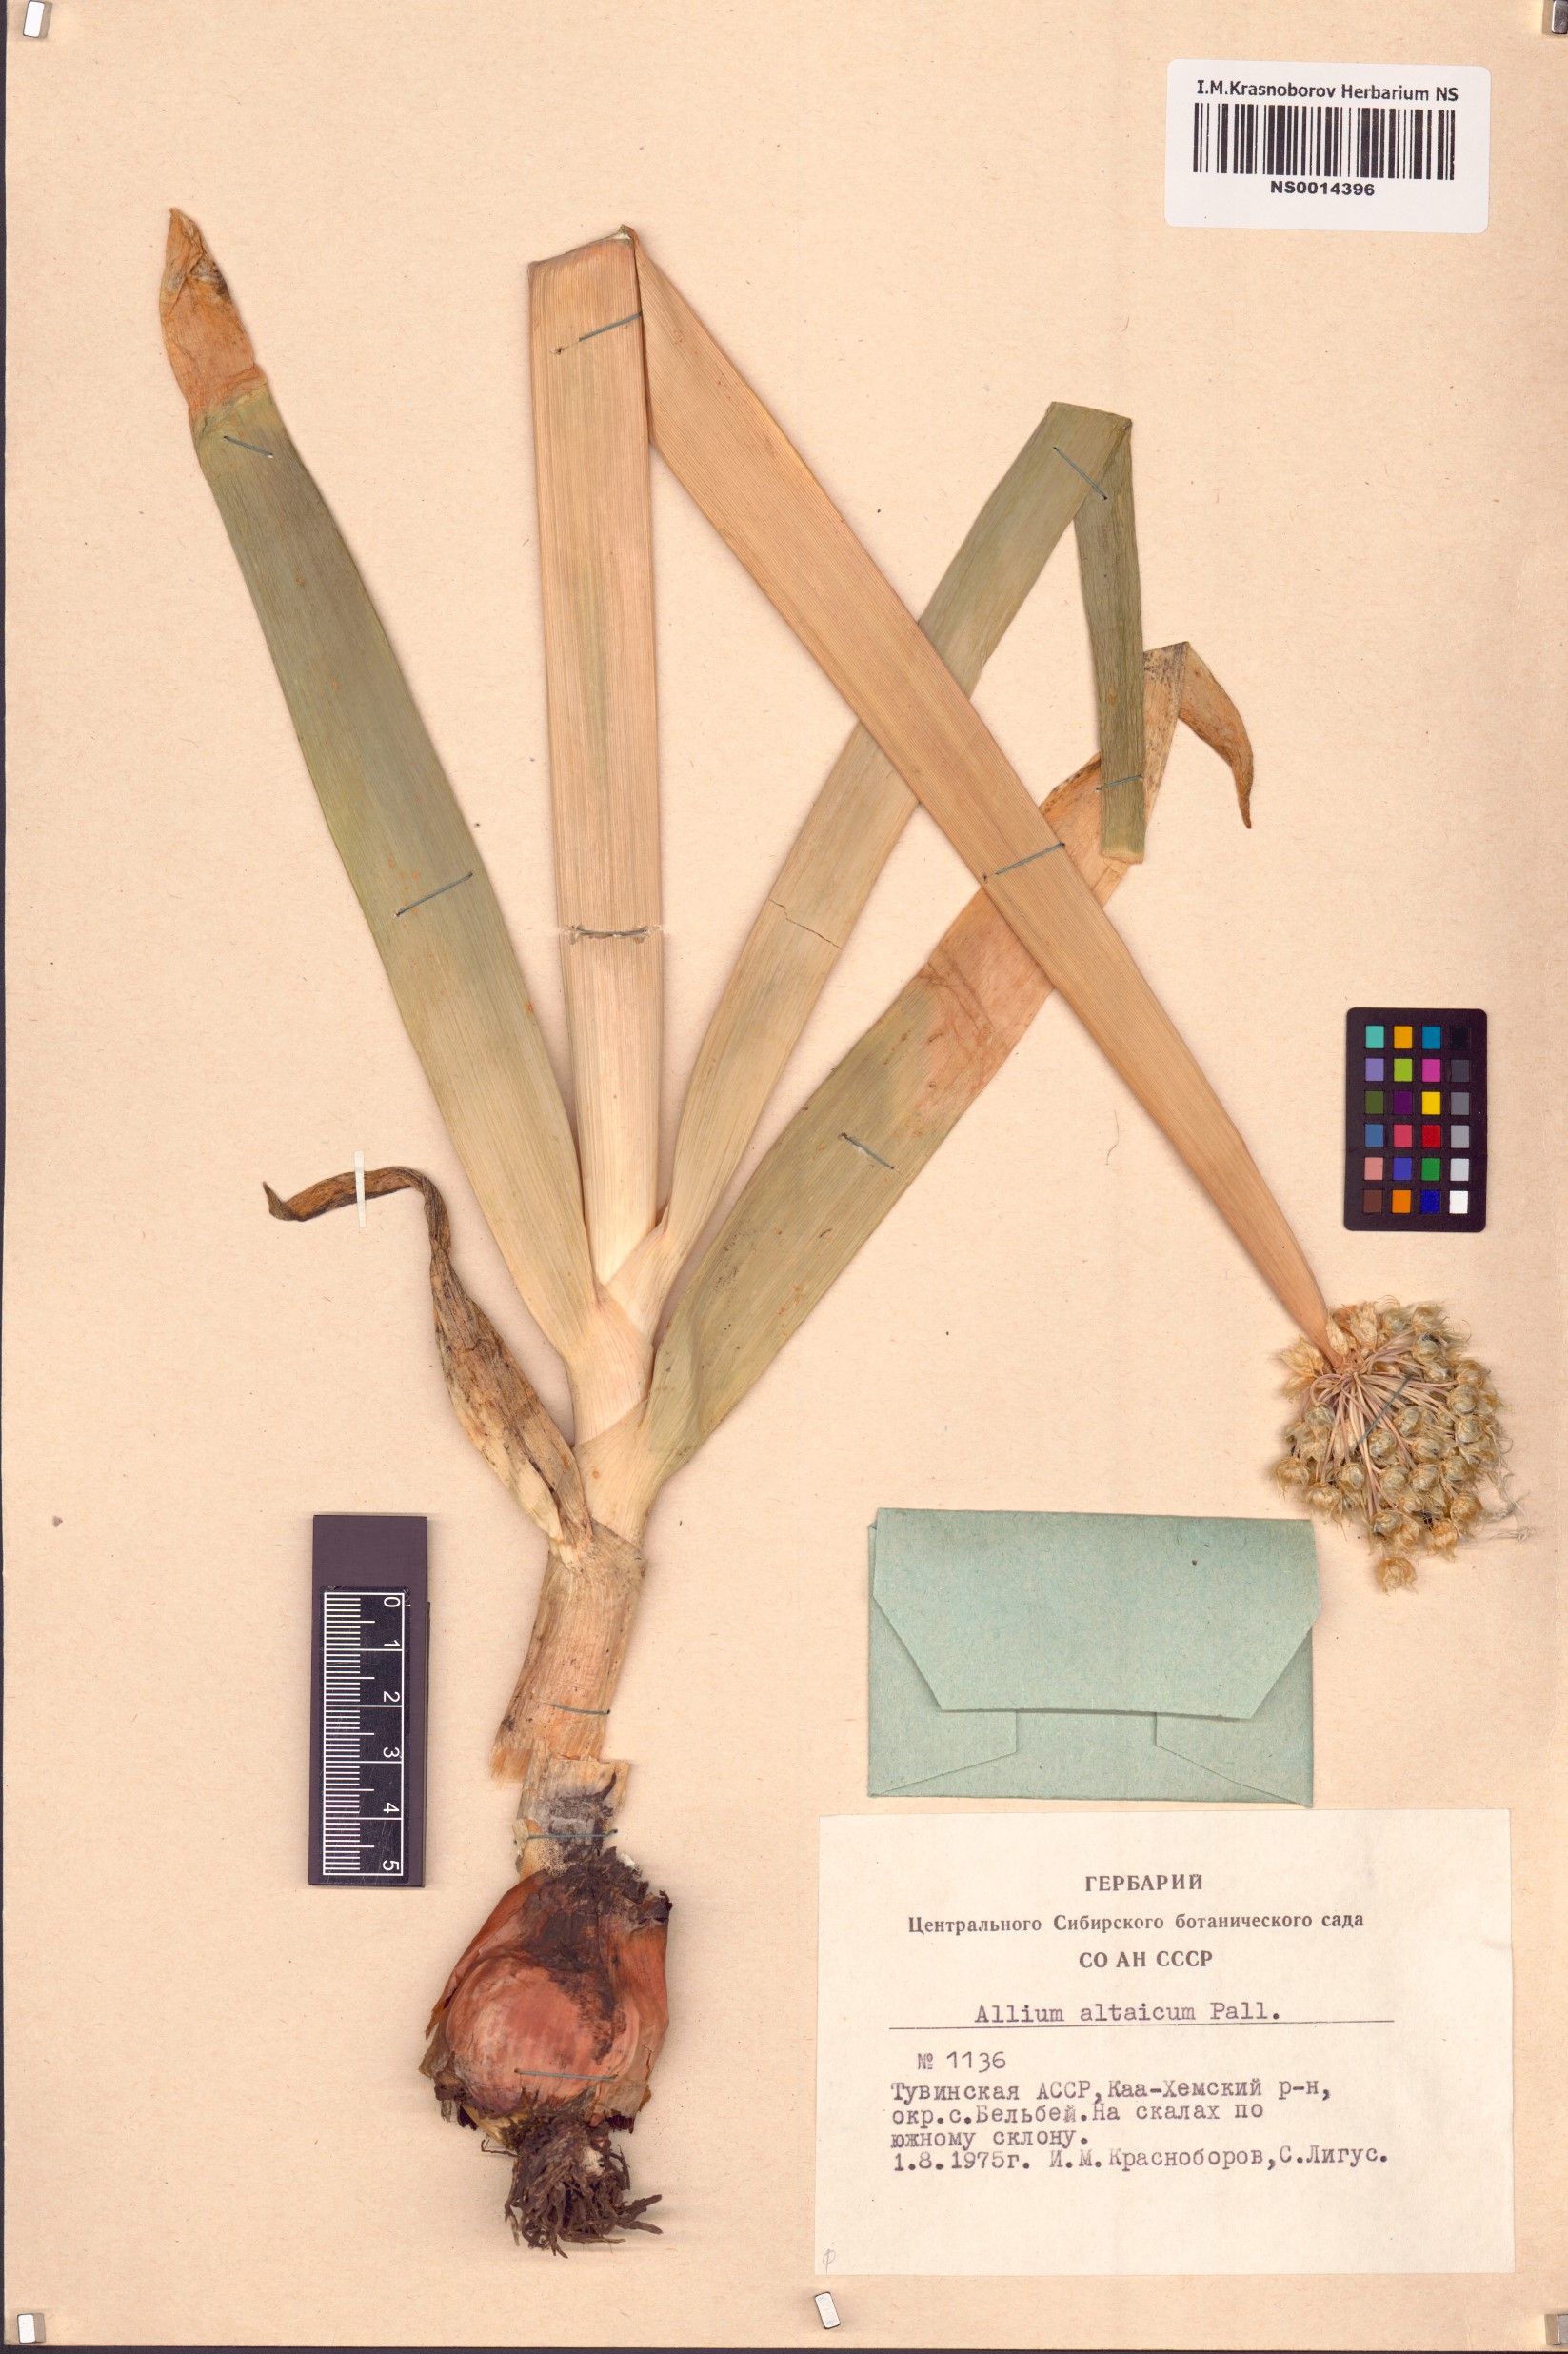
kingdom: Plantae
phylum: Tracheophyta
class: Liliopsida
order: Asparagales
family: Amaryllidaceae
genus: Allium
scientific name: Allium altaicum
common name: Altai onion
